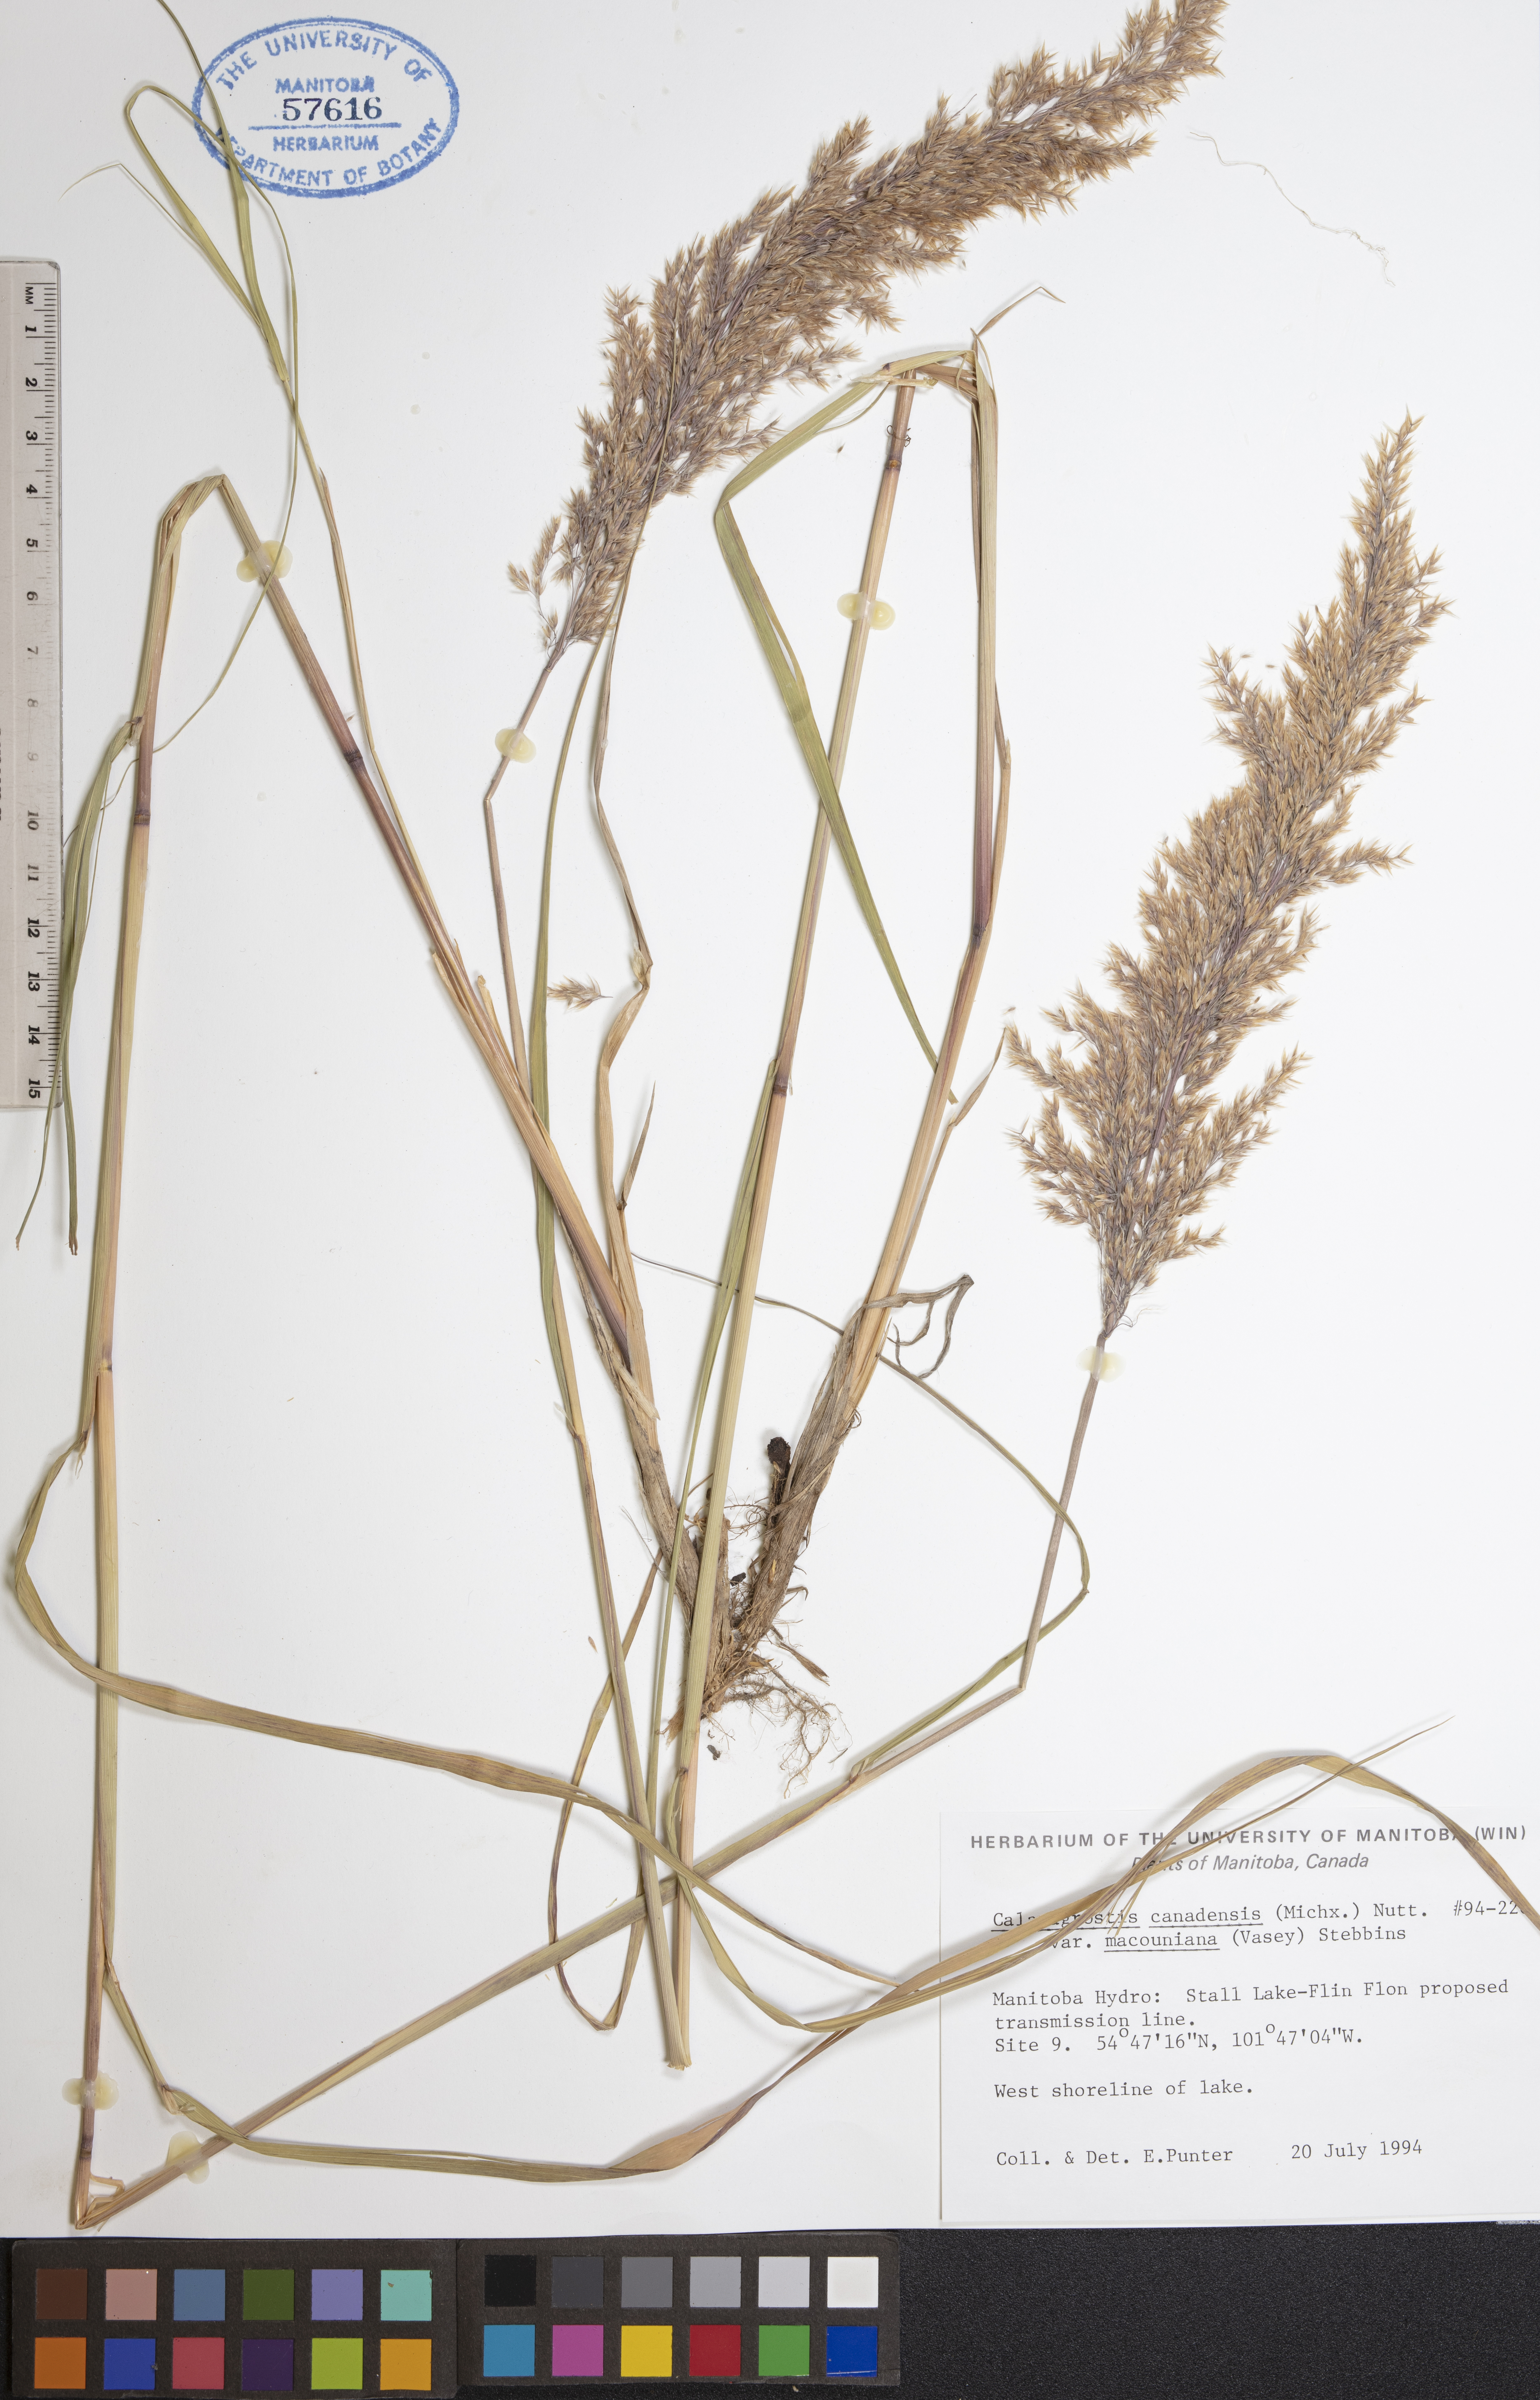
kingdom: Plantae
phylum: Tracheophyta
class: Liliopsida
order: Poales
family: Poaceae
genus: Calamagrostis
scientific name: Calamagrostis canadensis
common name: Canada bluejoint
